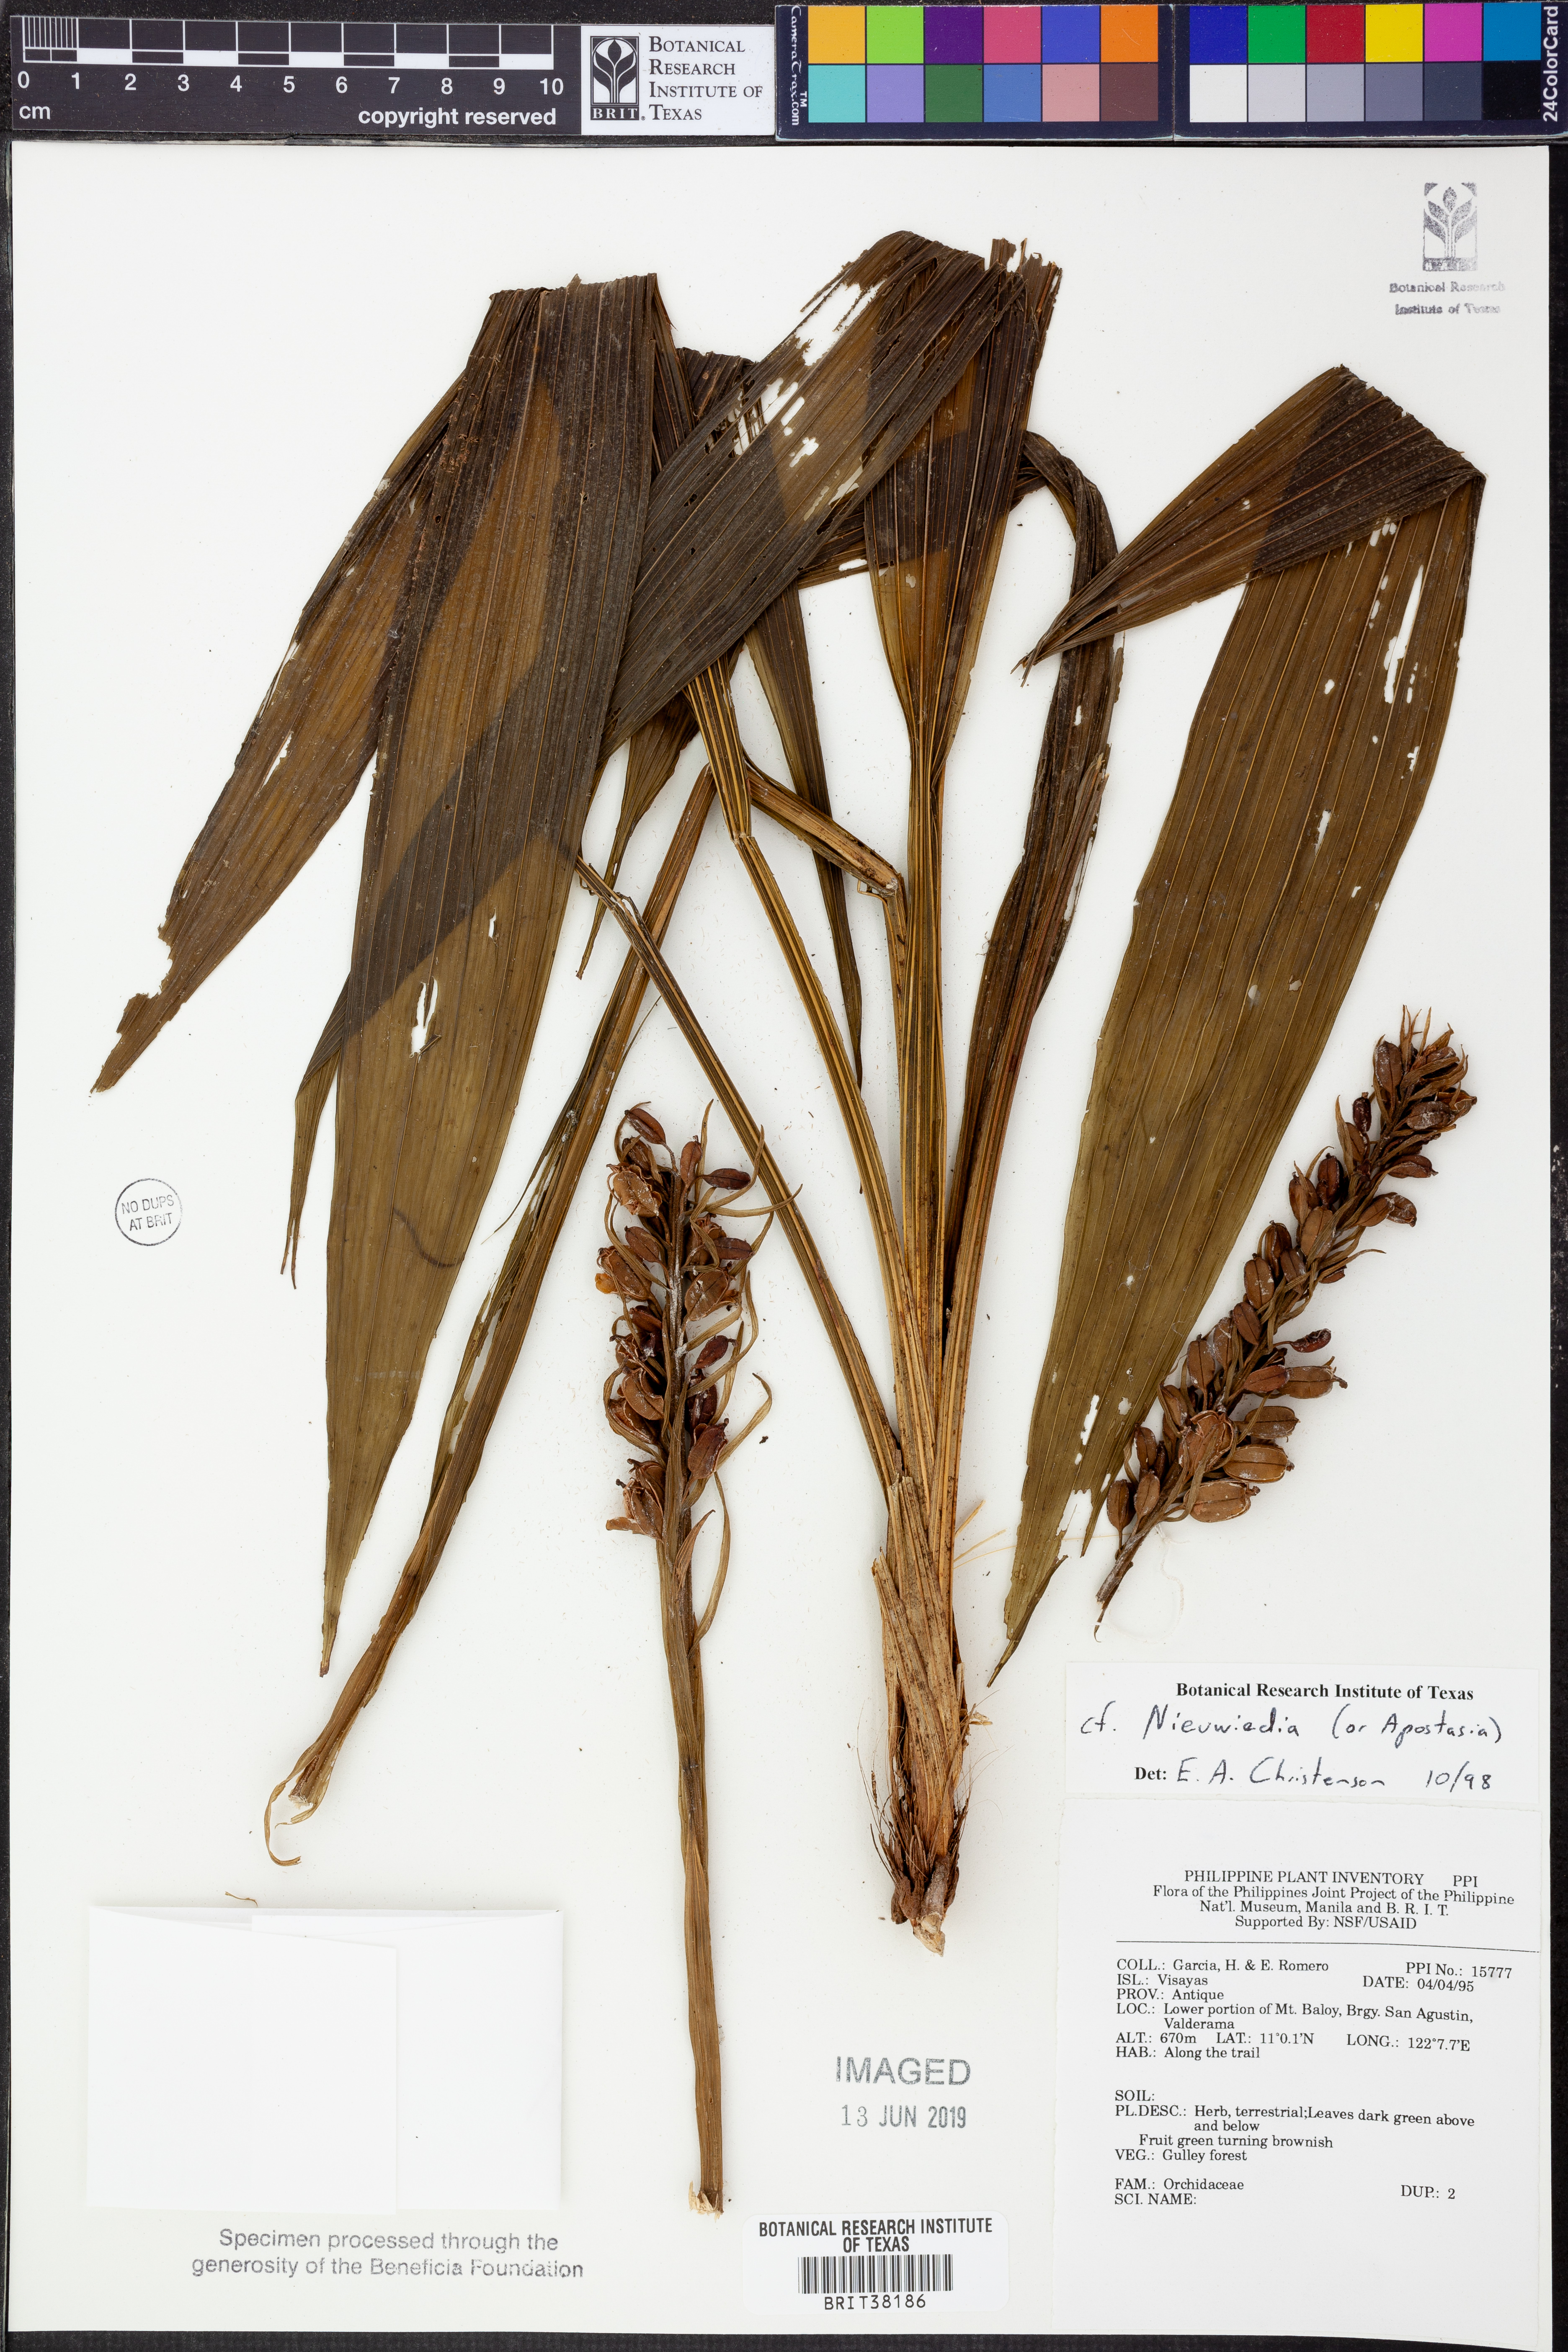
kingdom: Plantae
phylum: Tracheophyta
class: Liliopsida
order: Asparagales
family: Orchidaceae
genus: Neuwiedia
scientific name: Neuwiedia
